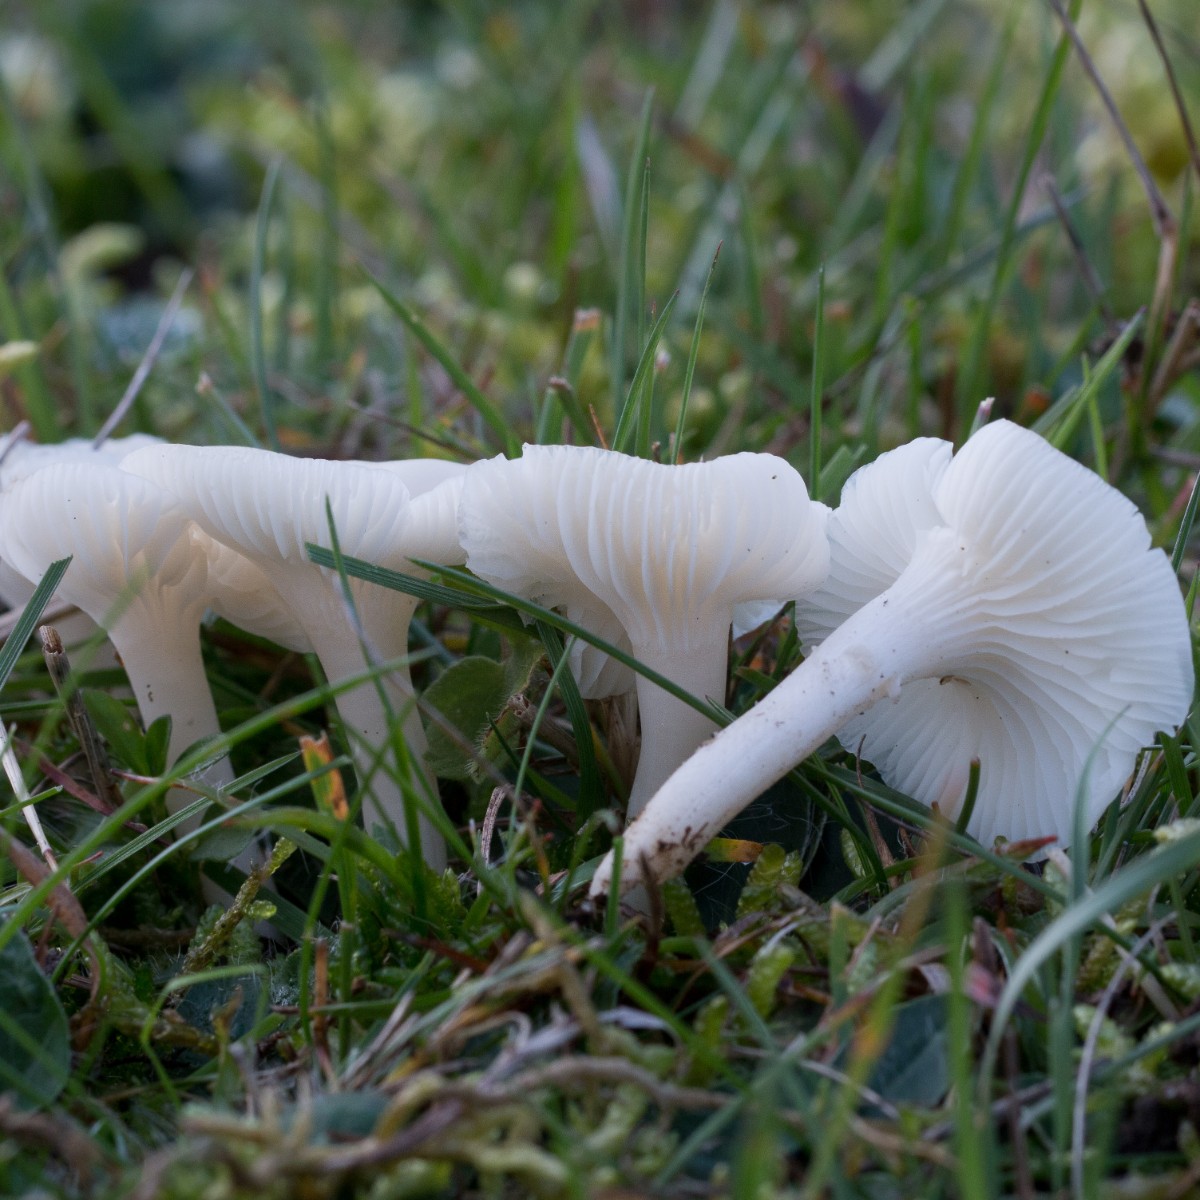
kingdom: Fungi
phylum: Basidiomycota
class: Agaricomycetes
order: Agaricales
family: Hygrophoraceae
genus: Cuphophyllus
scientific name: Cuphophyllus virgineus
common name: snehvid vokshat
